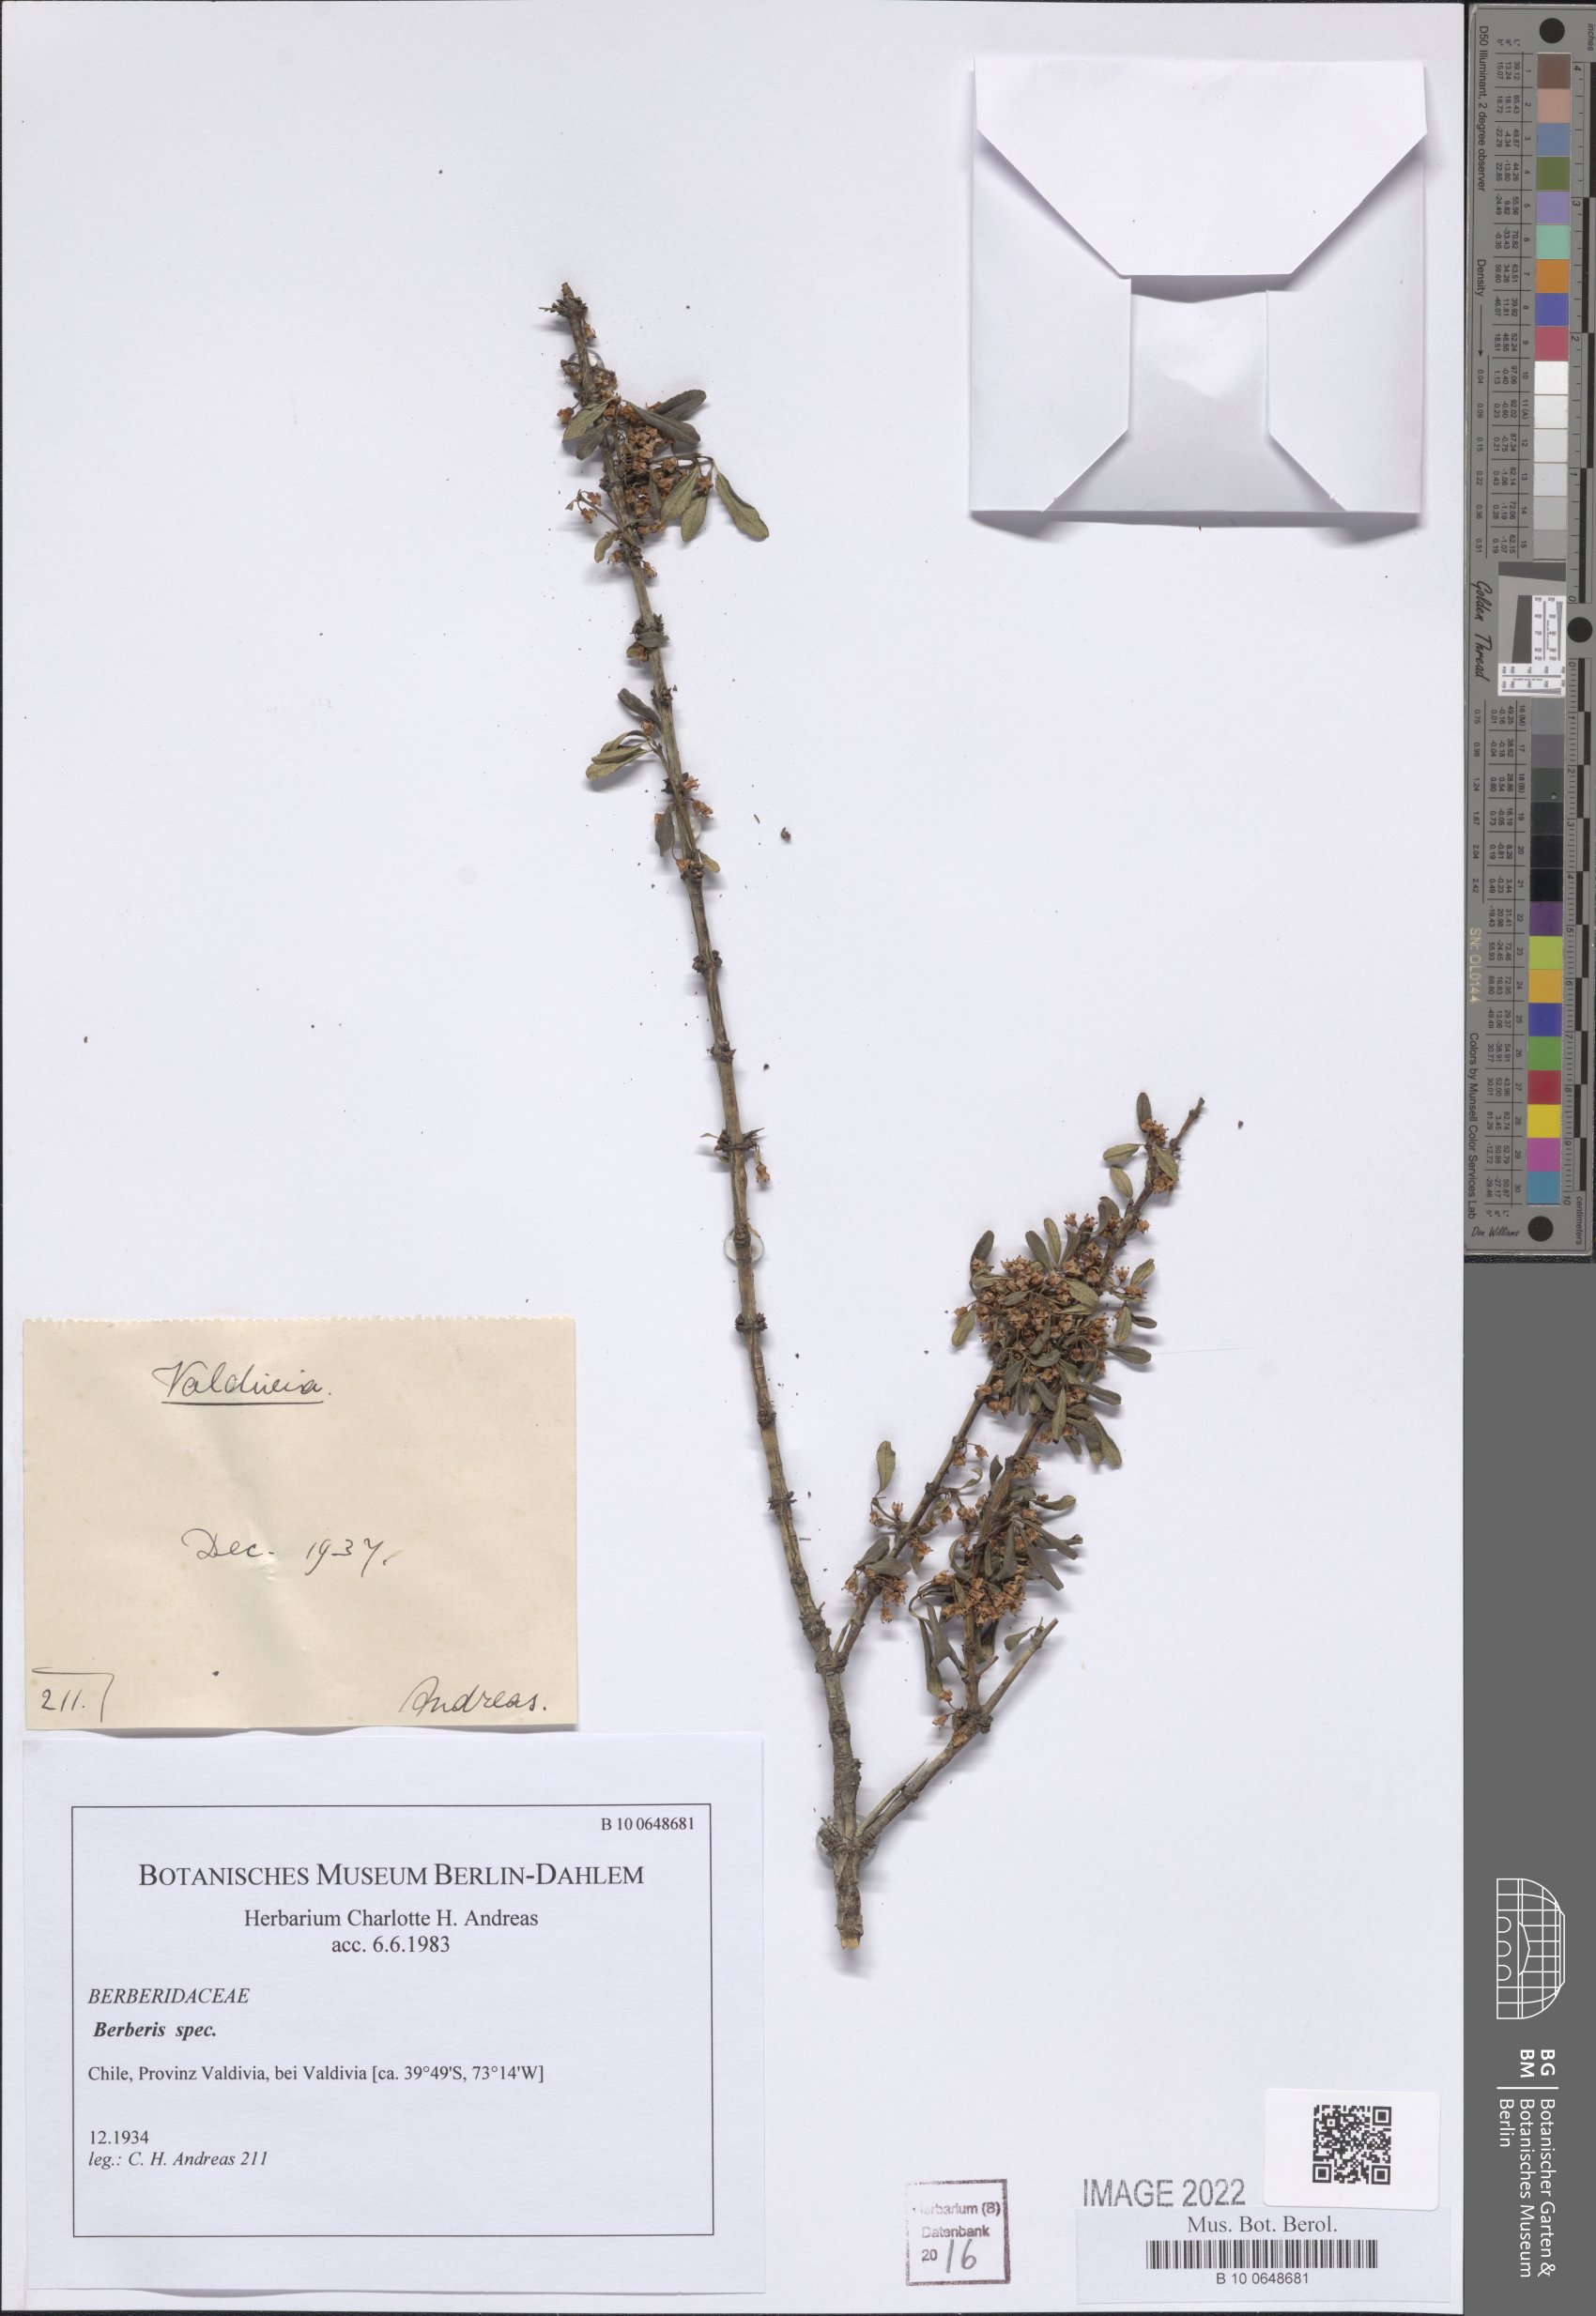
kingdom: Plantae
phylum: Tracheophyta
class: Magnoliopsida
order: Ranunculales
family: Berberidaceae
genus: Berberis
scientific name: Berberis
